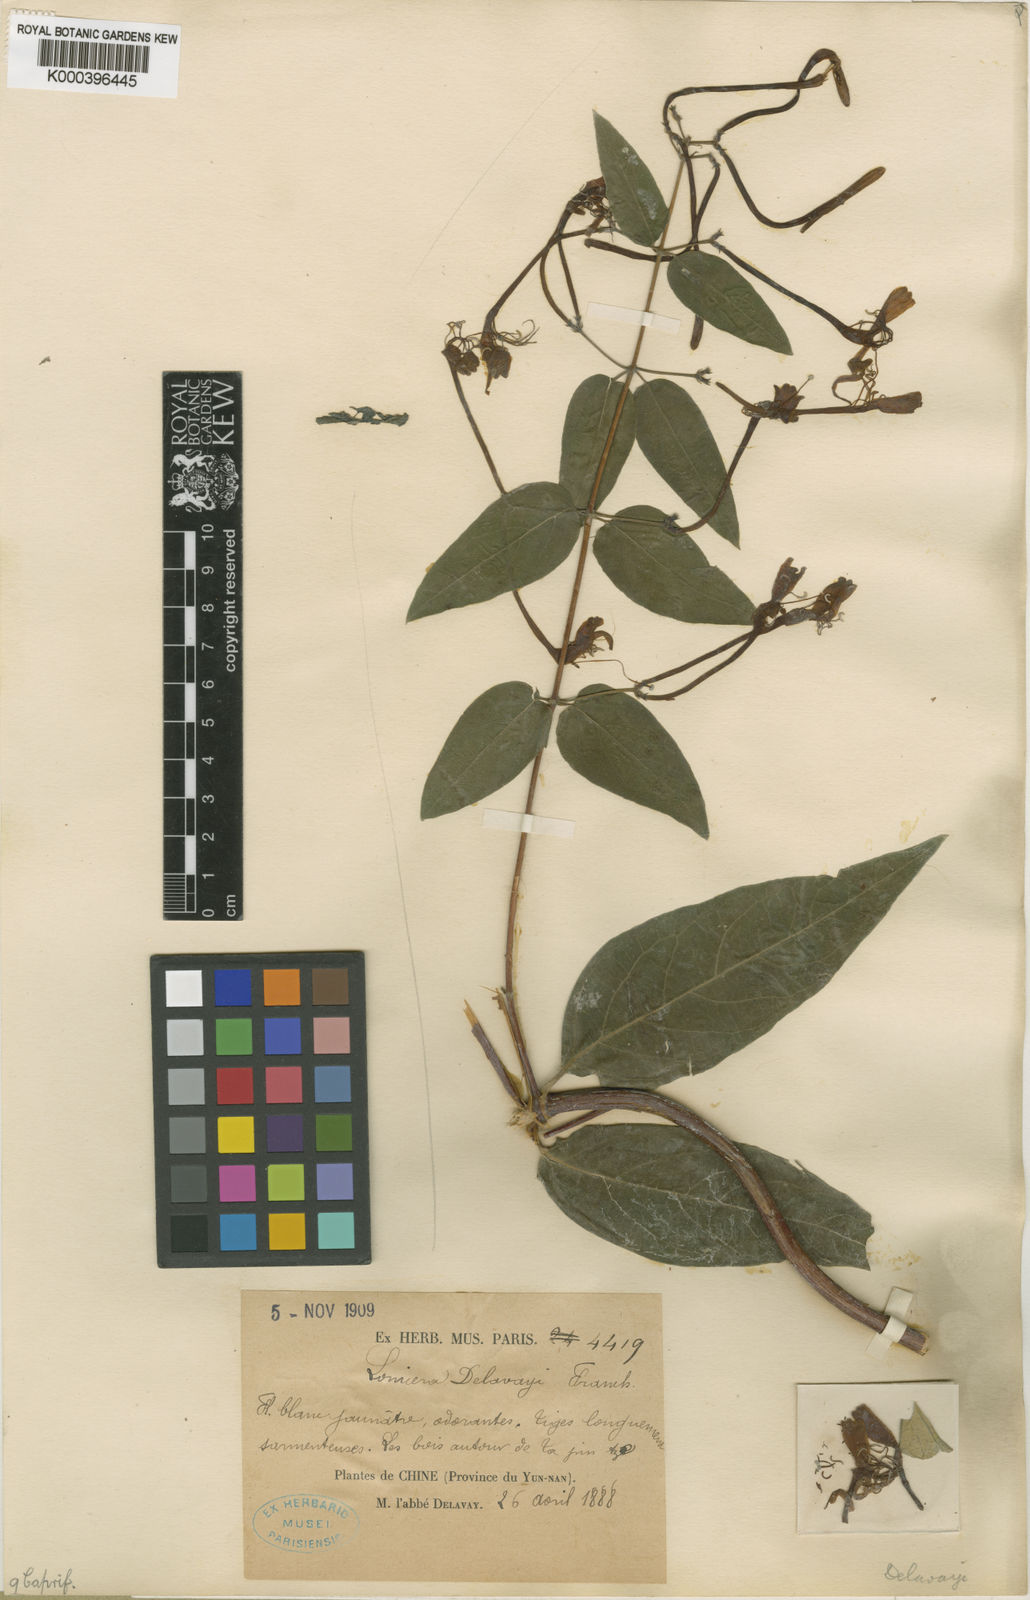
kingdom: Plantae
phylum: Tracheophyta
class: Magnoliopsida
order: Dipsacales
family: Caprifoliaceae
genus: Lonicera
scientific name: Lonicera similis
